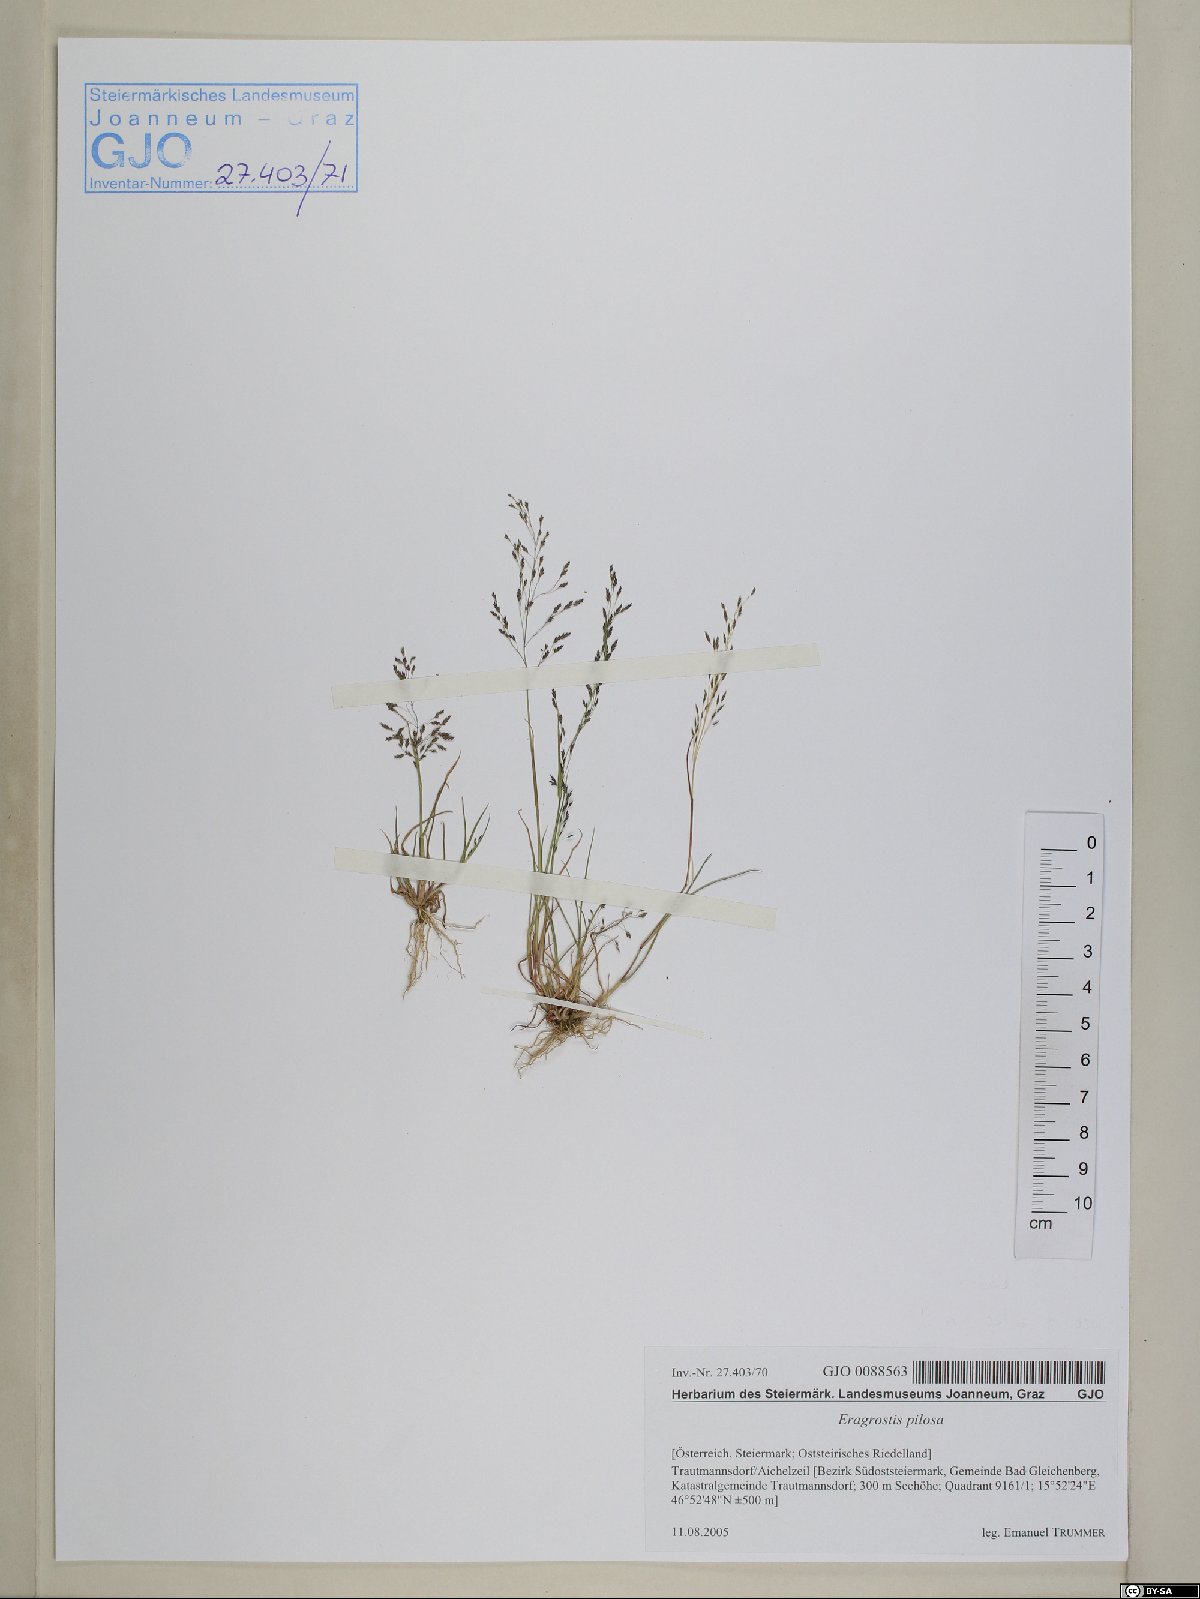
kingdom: Plantae
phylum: Tracheophyta
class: Liliopsida
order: Poales
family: Poaceae
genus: Eragrostis
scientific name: Eragrostis pilosa
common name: Indian lovegrass
